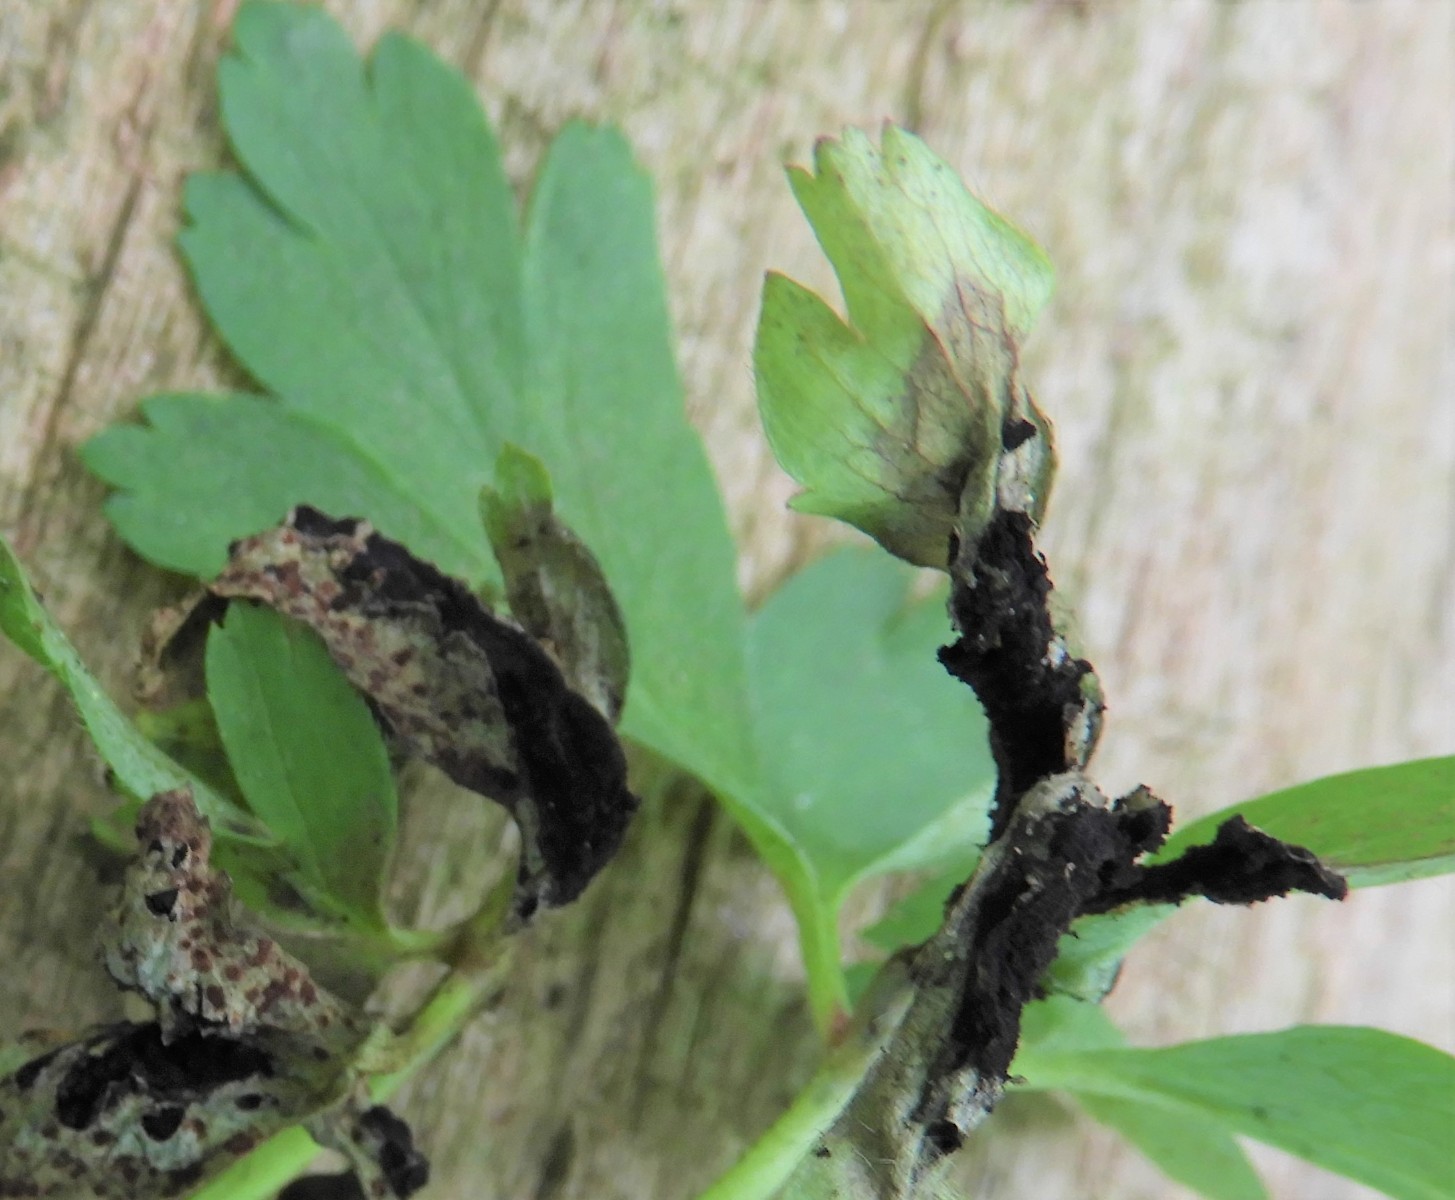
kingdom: Fungi
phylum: Basidiomycota
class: Ustilaginomycetes
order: Urocystidales
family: Urocystidaceae
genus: Urocystis
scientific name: Urocystis anemones
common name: anemone-brand
